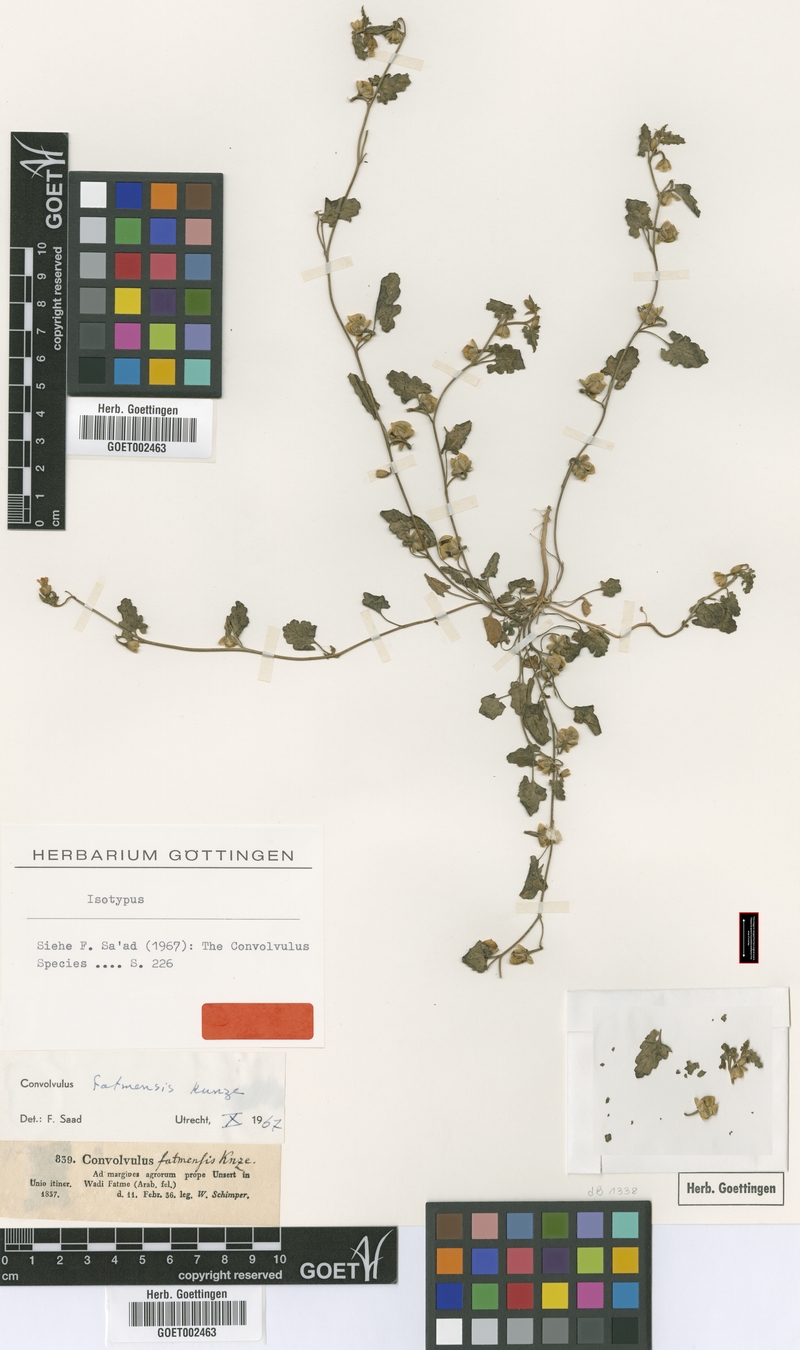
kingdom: Plantae
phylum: Tracheophyta
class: Magnoliopsida
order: Solanales
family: Convolvulaceae
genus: Convolvulus
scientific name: Convolvulus fatmensis
